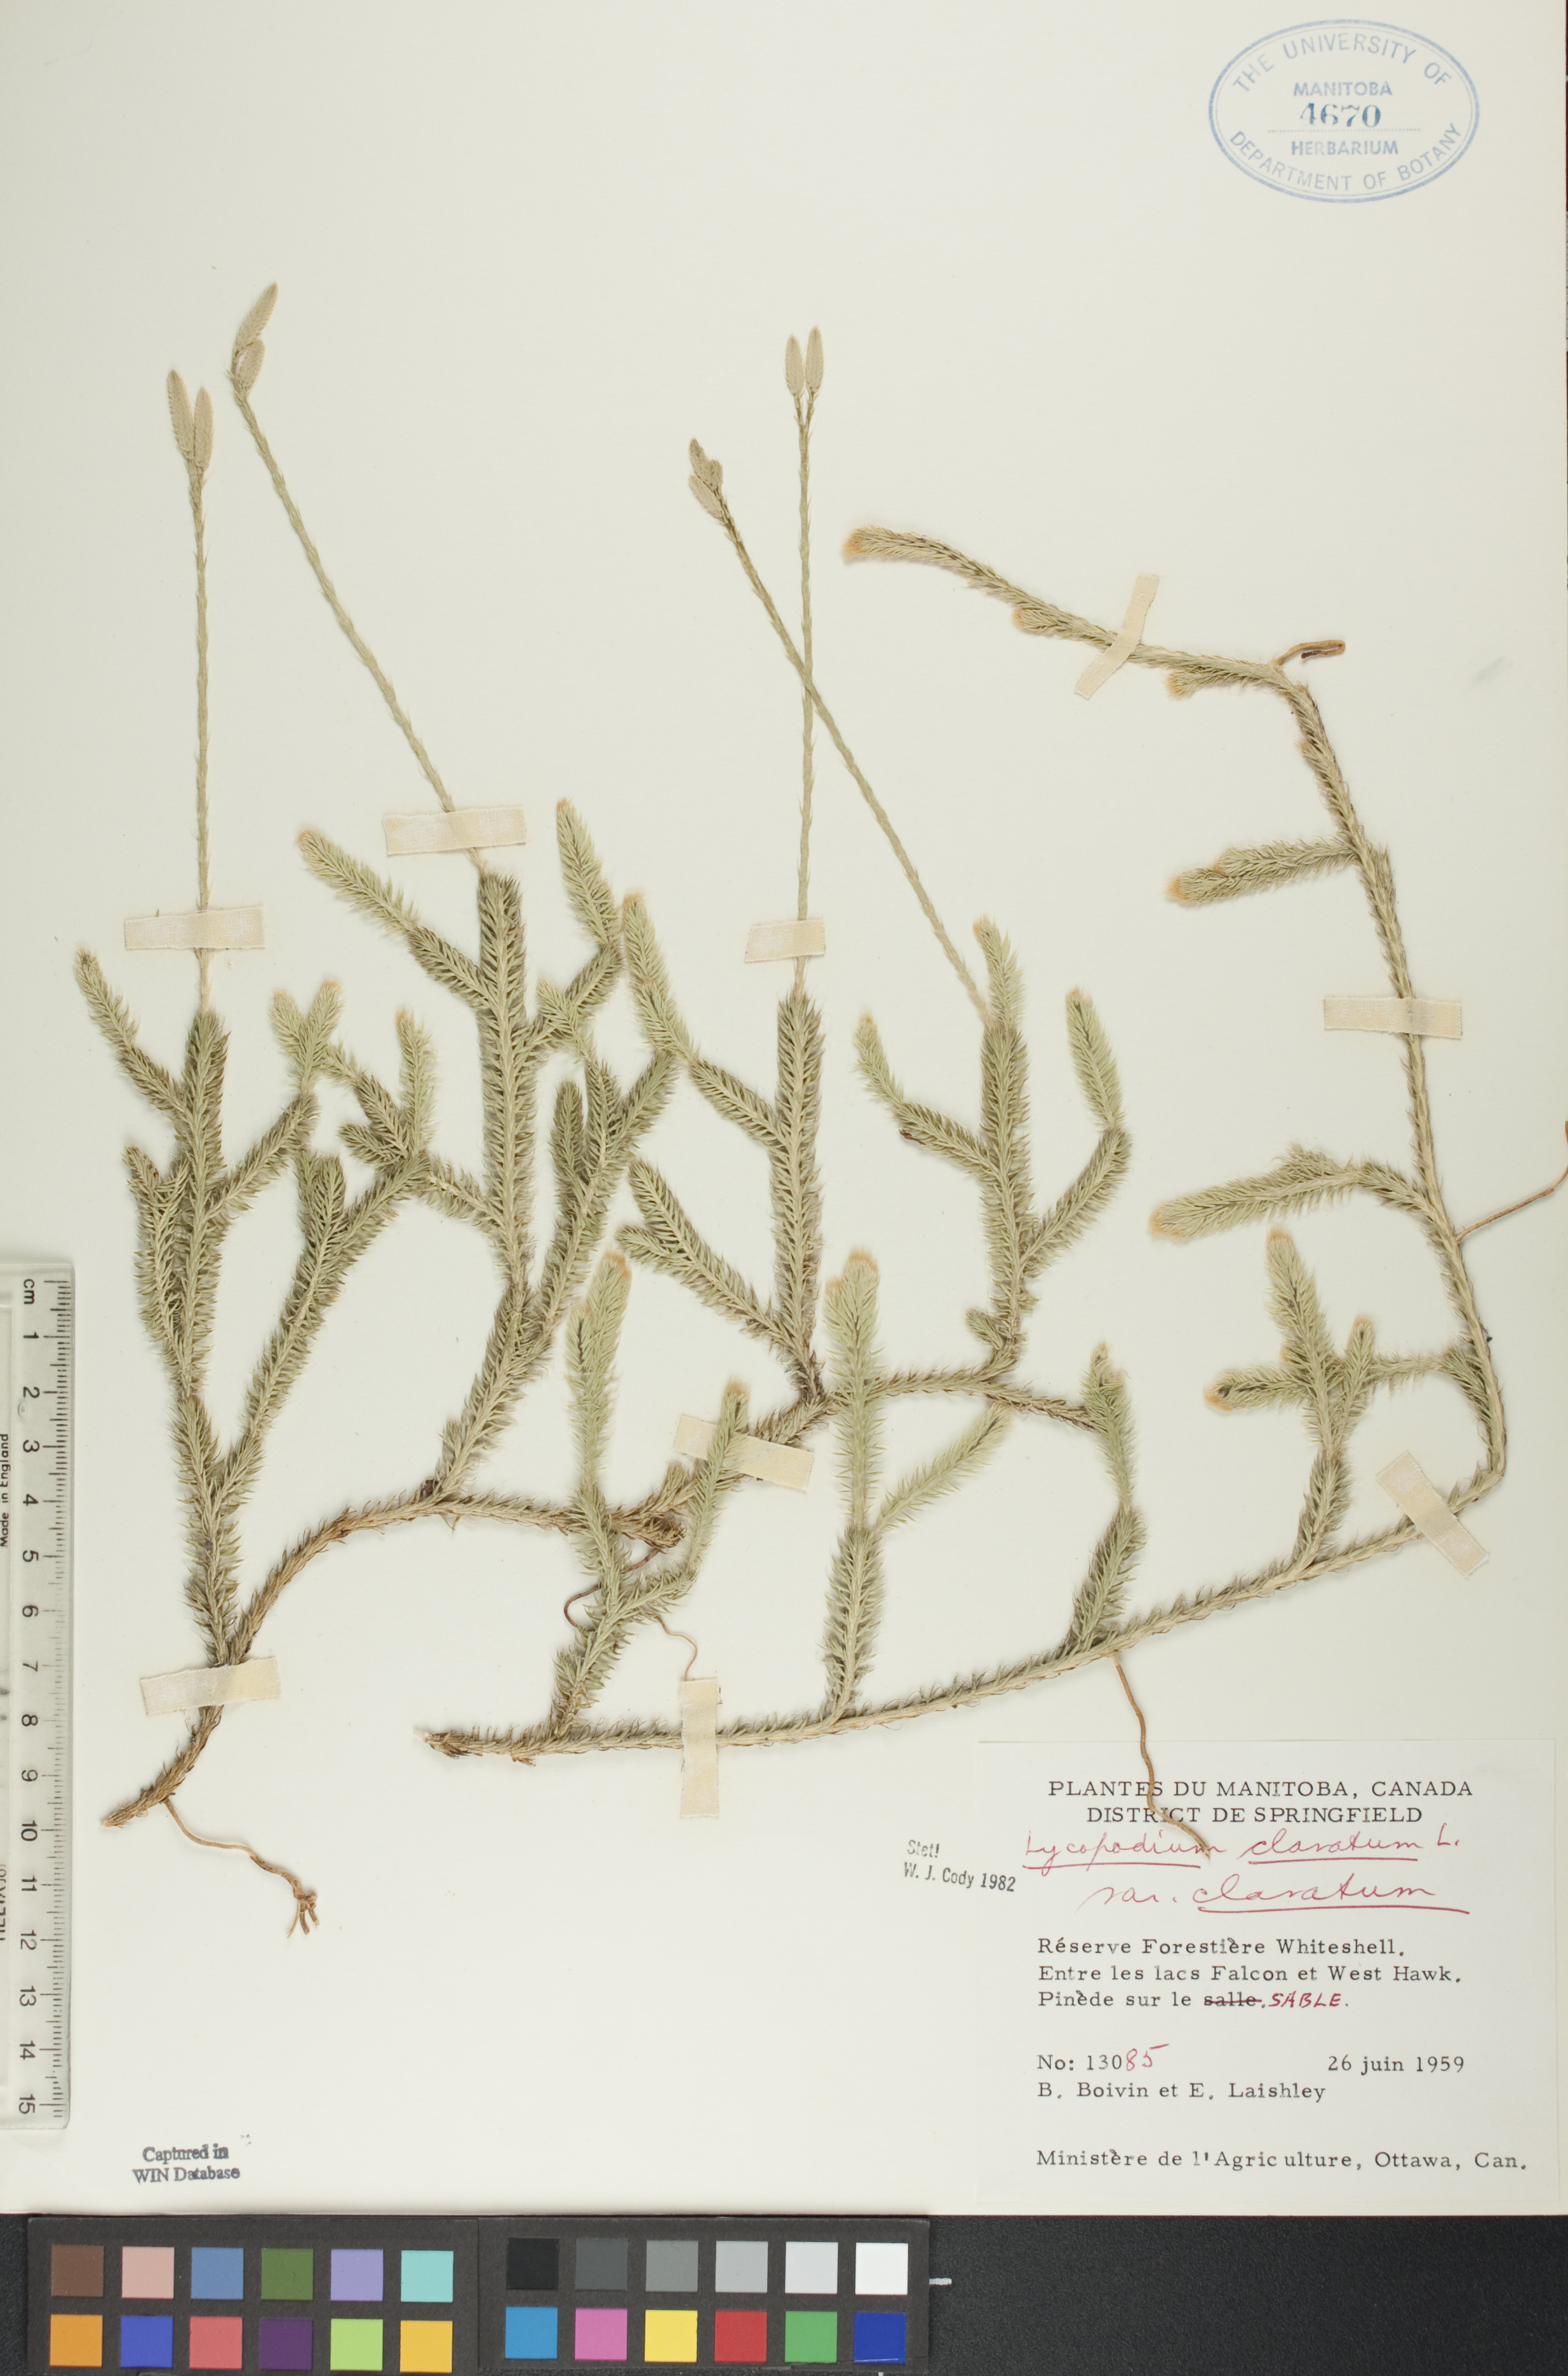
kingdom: Plantae
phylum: Tracheophyta
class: Lycopodiopsida
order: Lycopodiales
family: Lycopodiaceae
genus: Lycopodium
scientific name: Lycopodium clavatum
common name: Stag's-horn clubmoss
